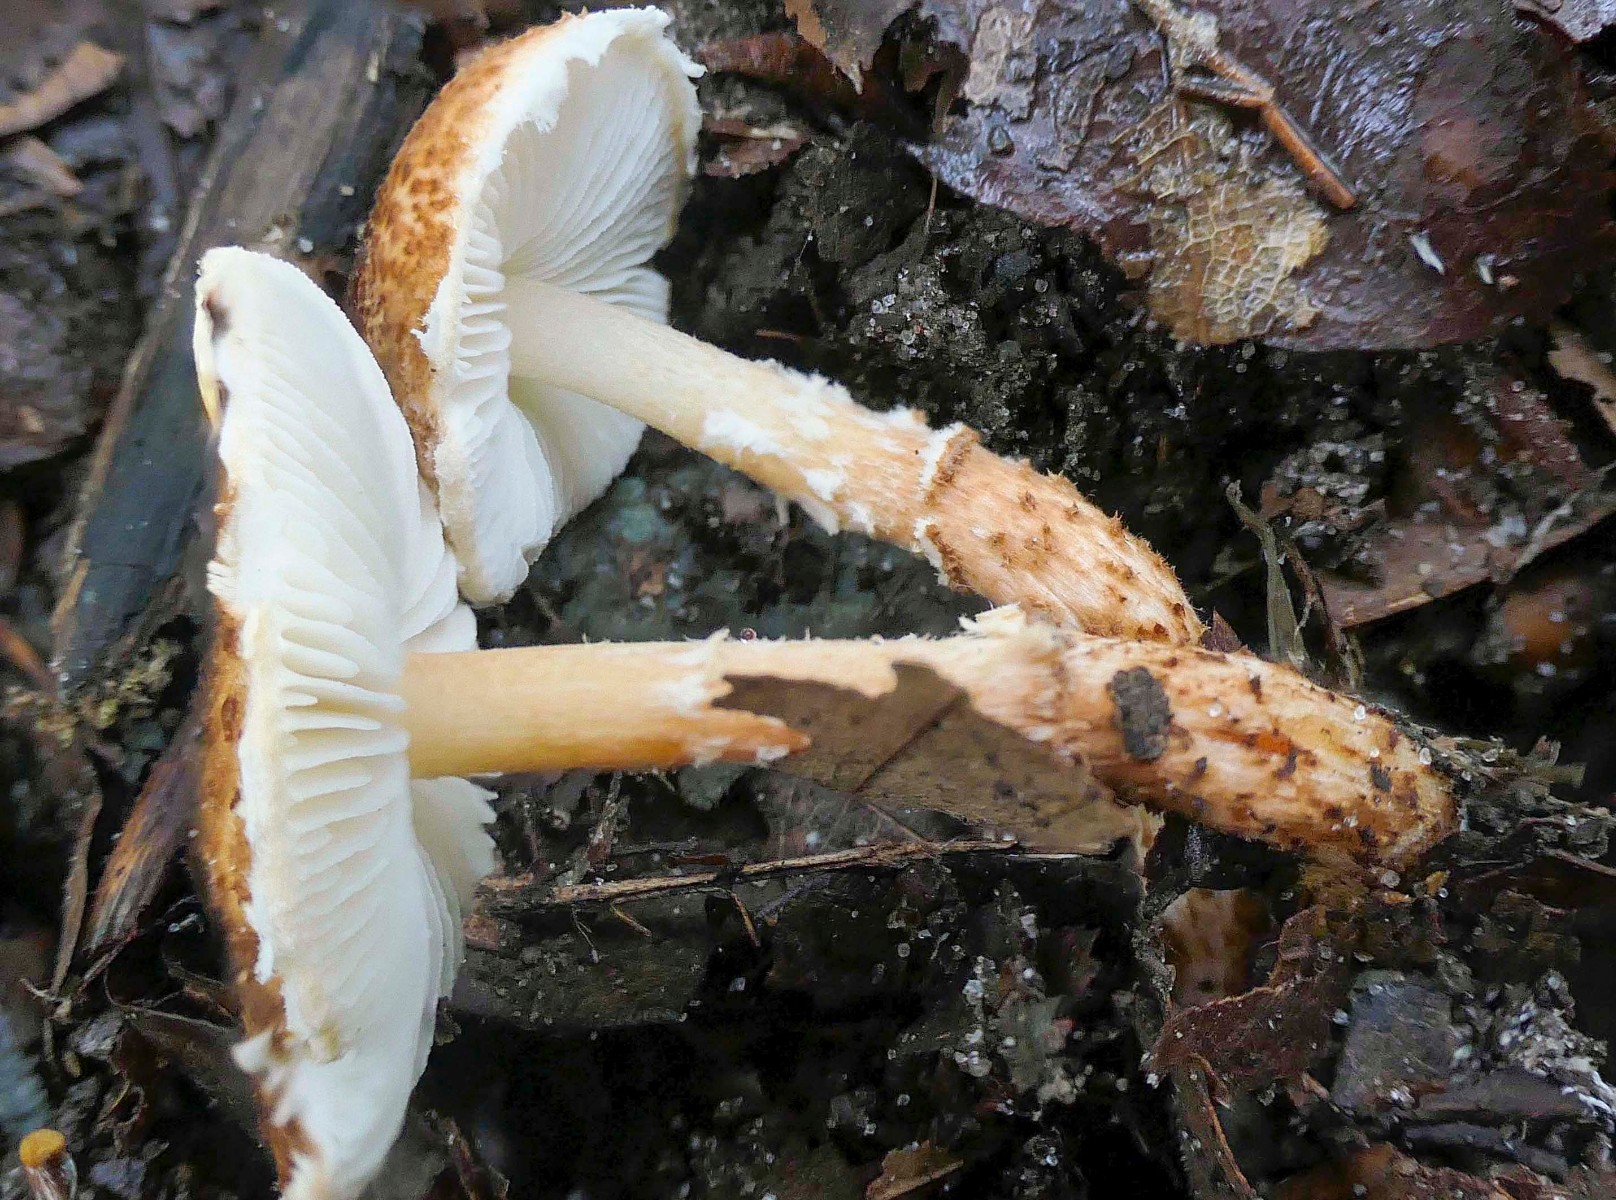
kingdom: Fungi
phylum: Basidiomycota
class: Agaricomycetes
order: Agaricales
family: Agaricaceae
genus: Lepiota
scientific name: Lepiota castanea
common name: kastaniebrun parasolhat
